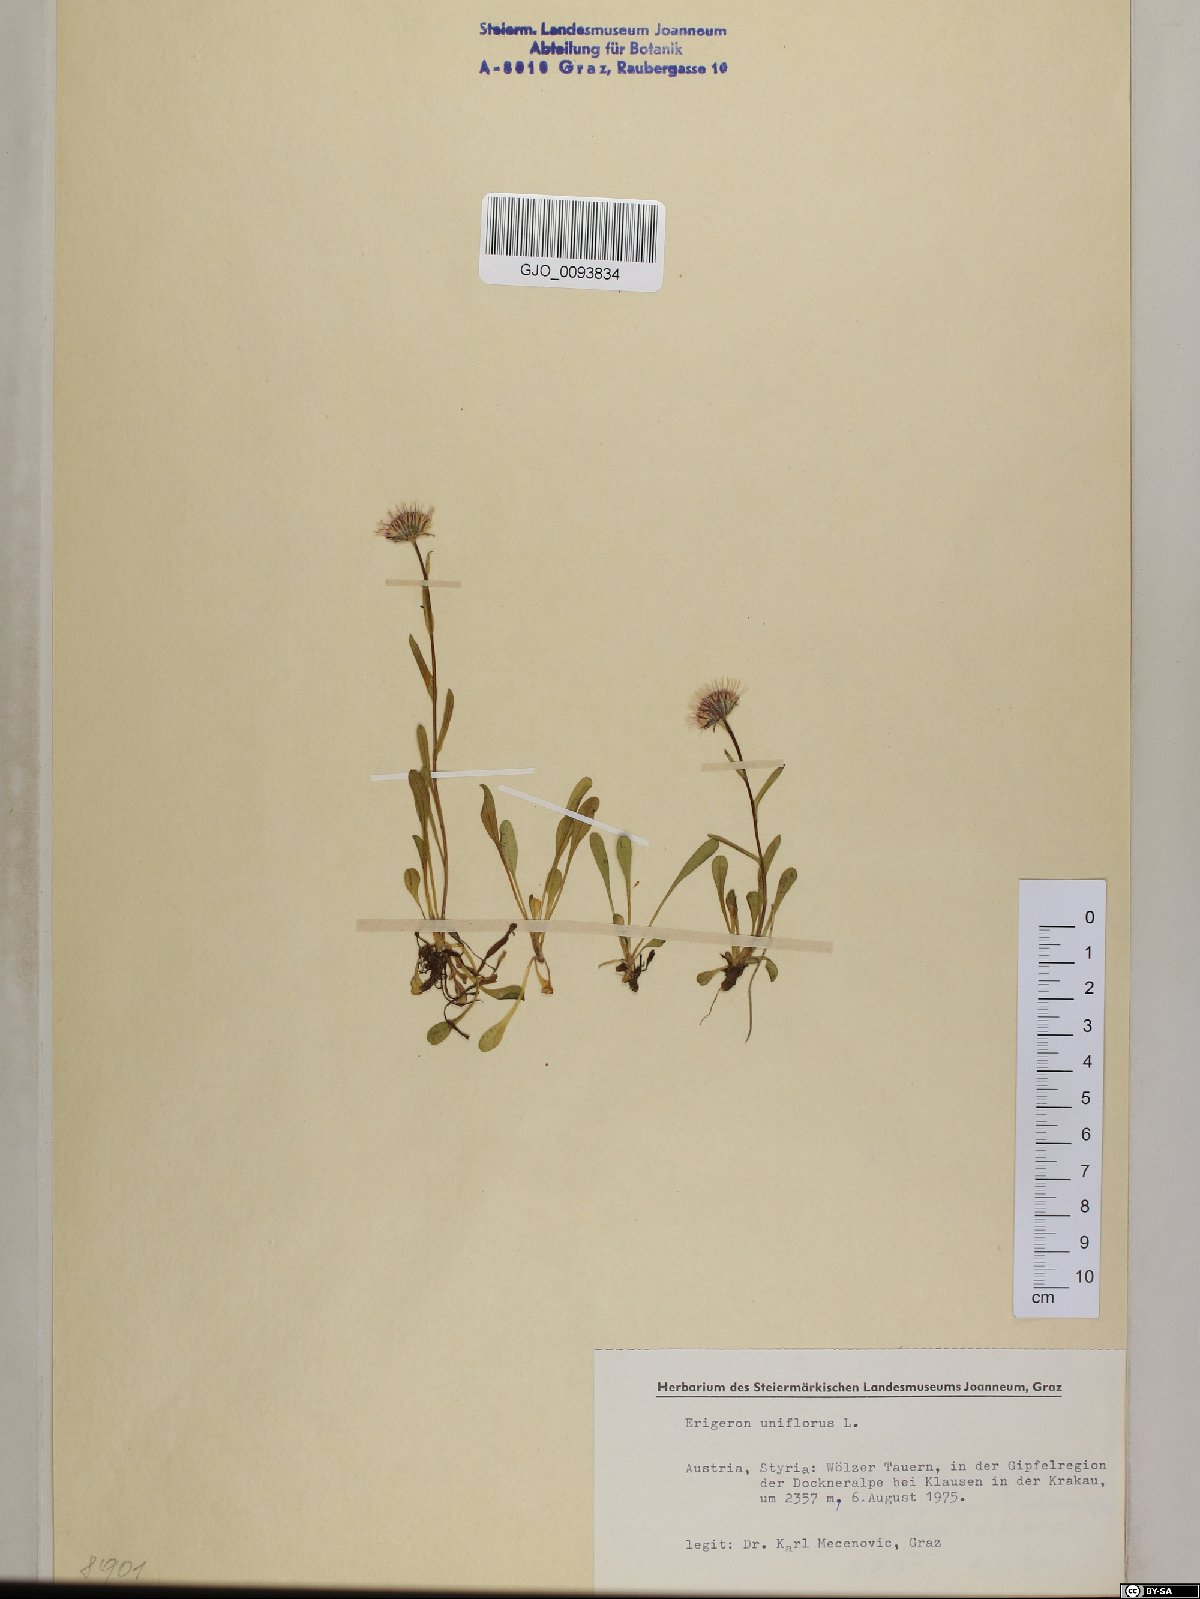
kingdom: Plantae
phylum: Tracheophyta
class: Magnoliopsida
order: Asterales
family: Asteraceae
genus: Erigeron
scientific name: Erigeron uniflorus
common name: Northern daisy
